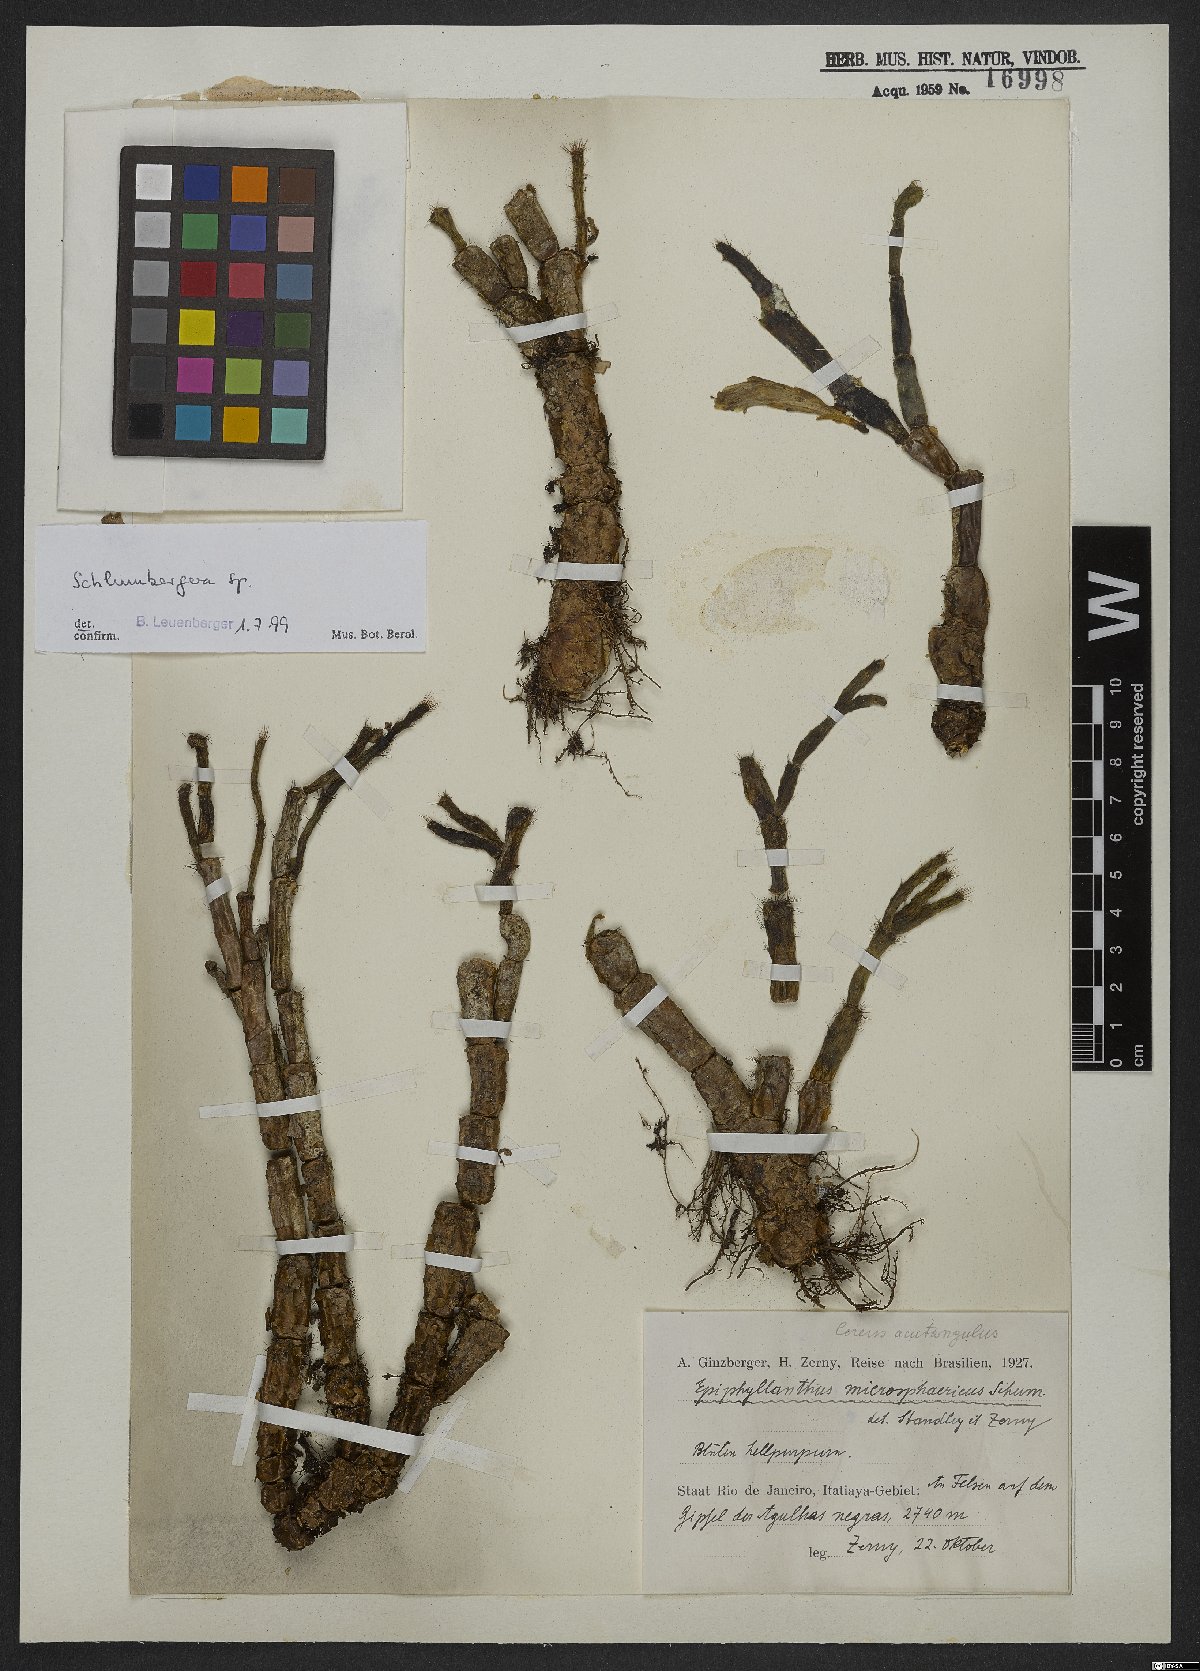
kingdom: Plantae
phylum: Tracheophyta
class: Magnoliopsida
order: Caryophyllales
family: Cactaceae
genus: Schlumbergera
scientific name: Schlumbergera
